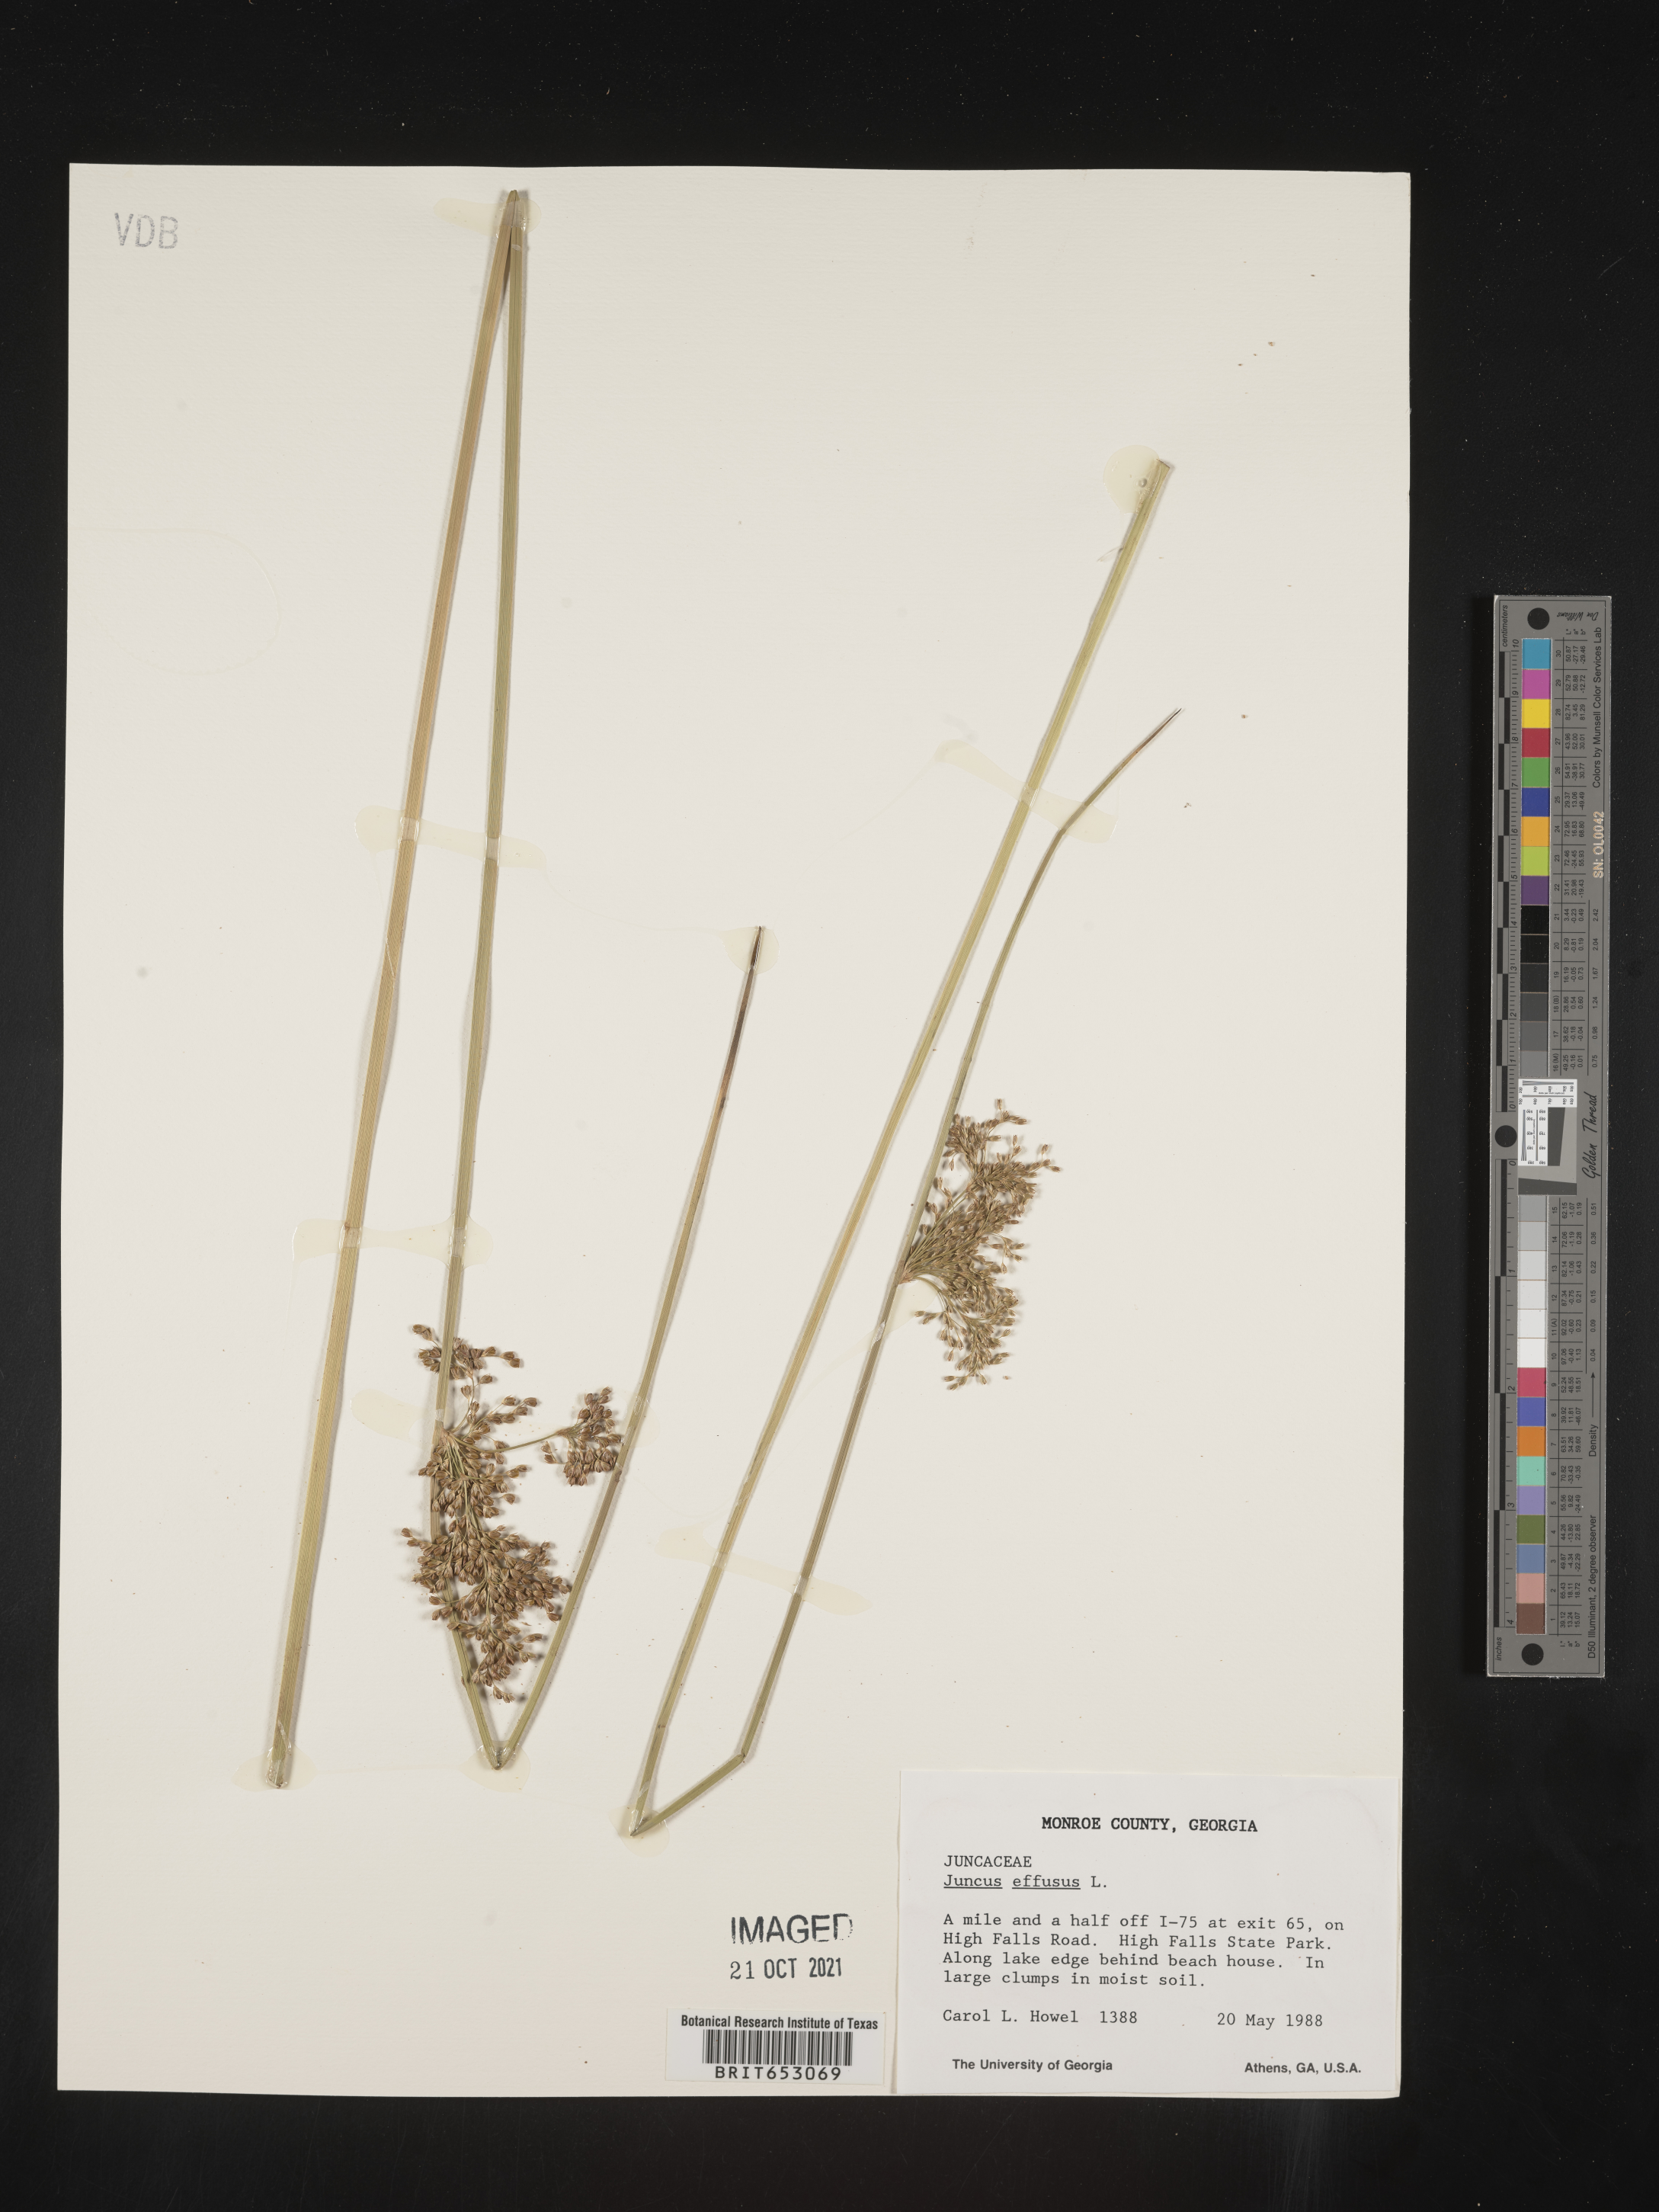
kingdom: Plantae
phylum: Tracheophyta
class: Liliopsida
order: Poales
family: Juncaceae
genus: Juncus
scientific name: Juncus effusus
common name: Soft rush
